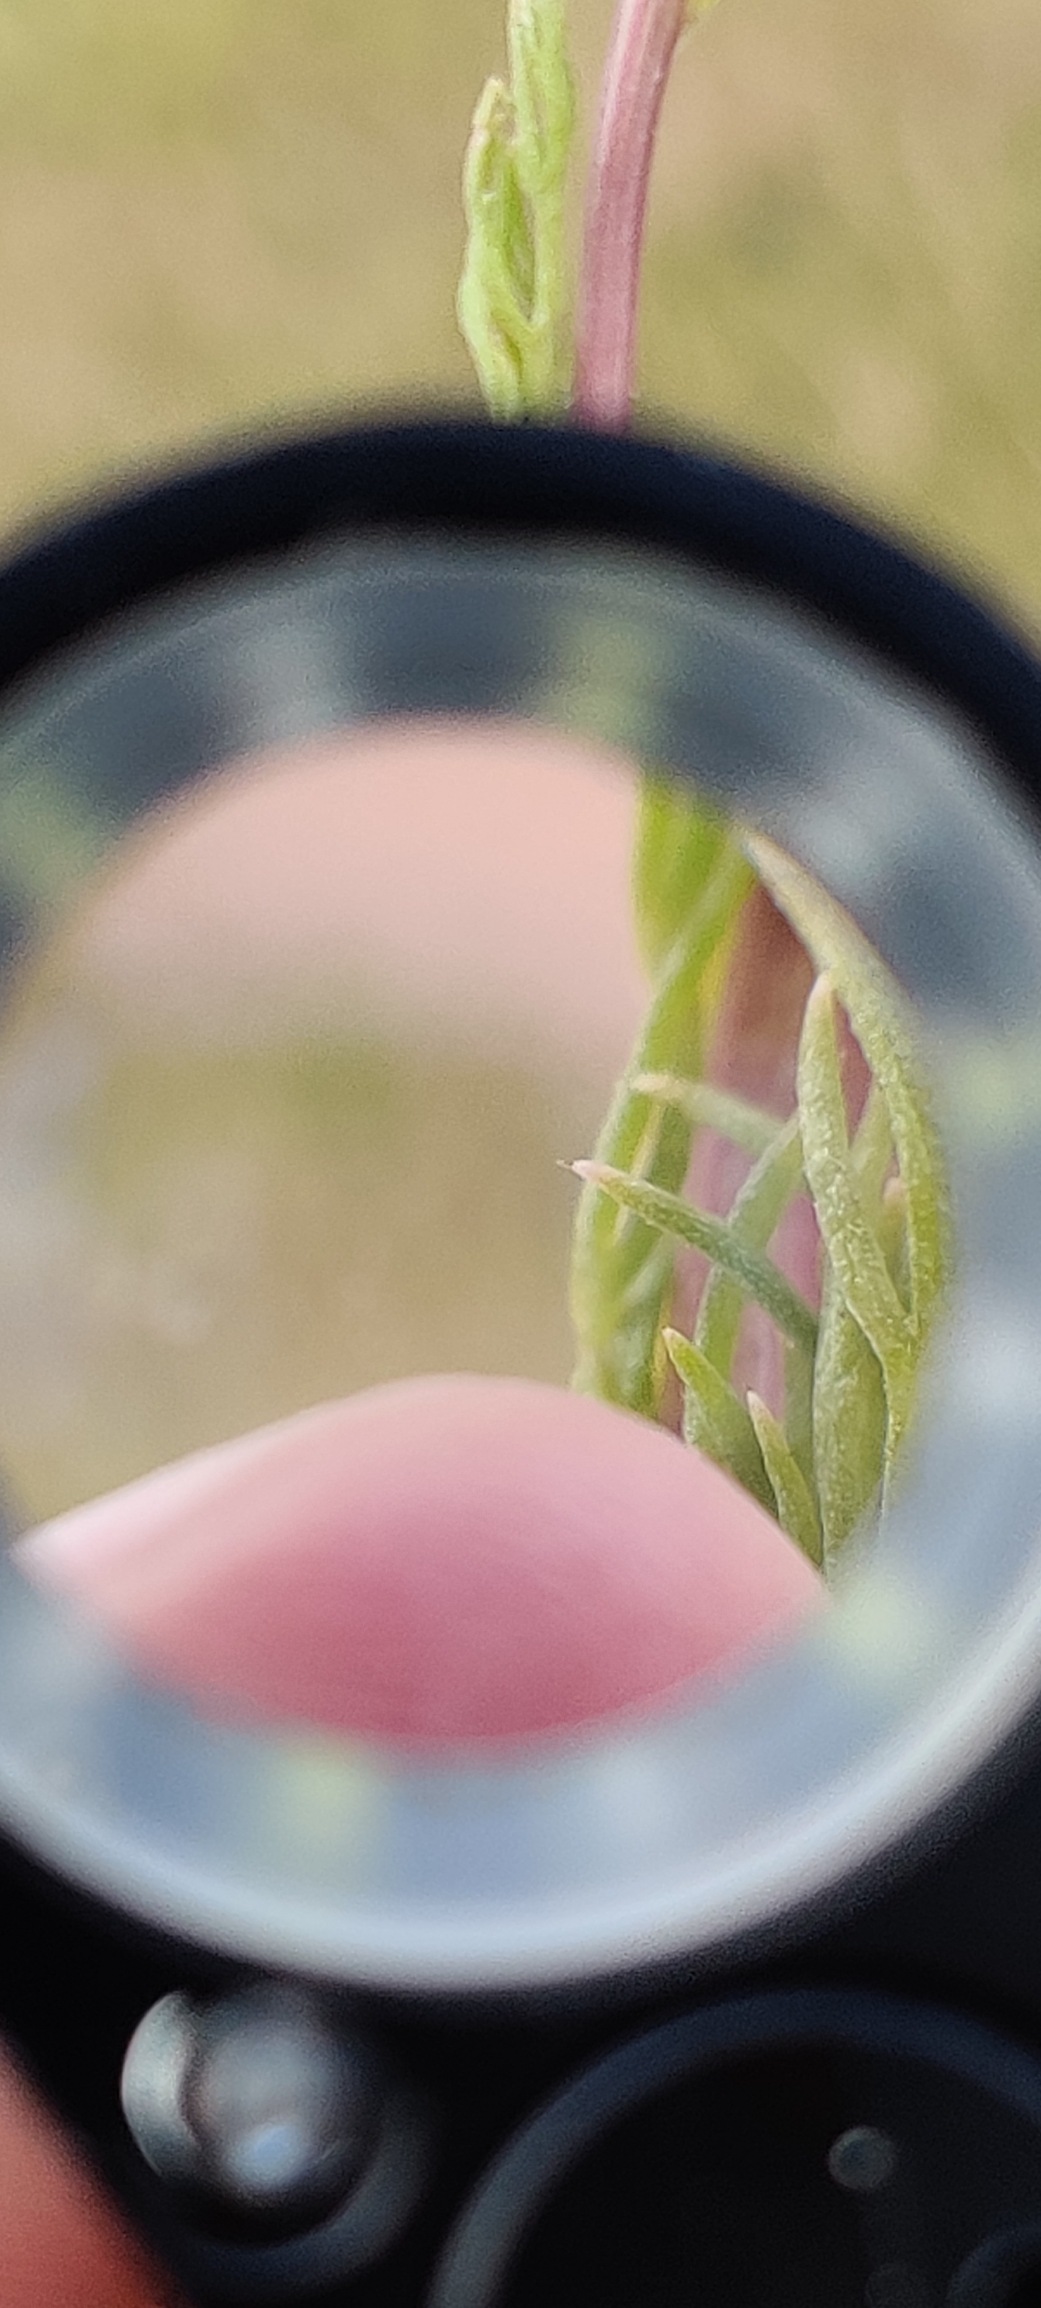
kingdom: Plantae
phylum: Tracheophyta
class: Magnoliopsida
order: Asterales
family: Asteraceae
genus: Tripleurospermum
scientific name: Tripleurospermum inodorum
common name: Lugtløs kamille
